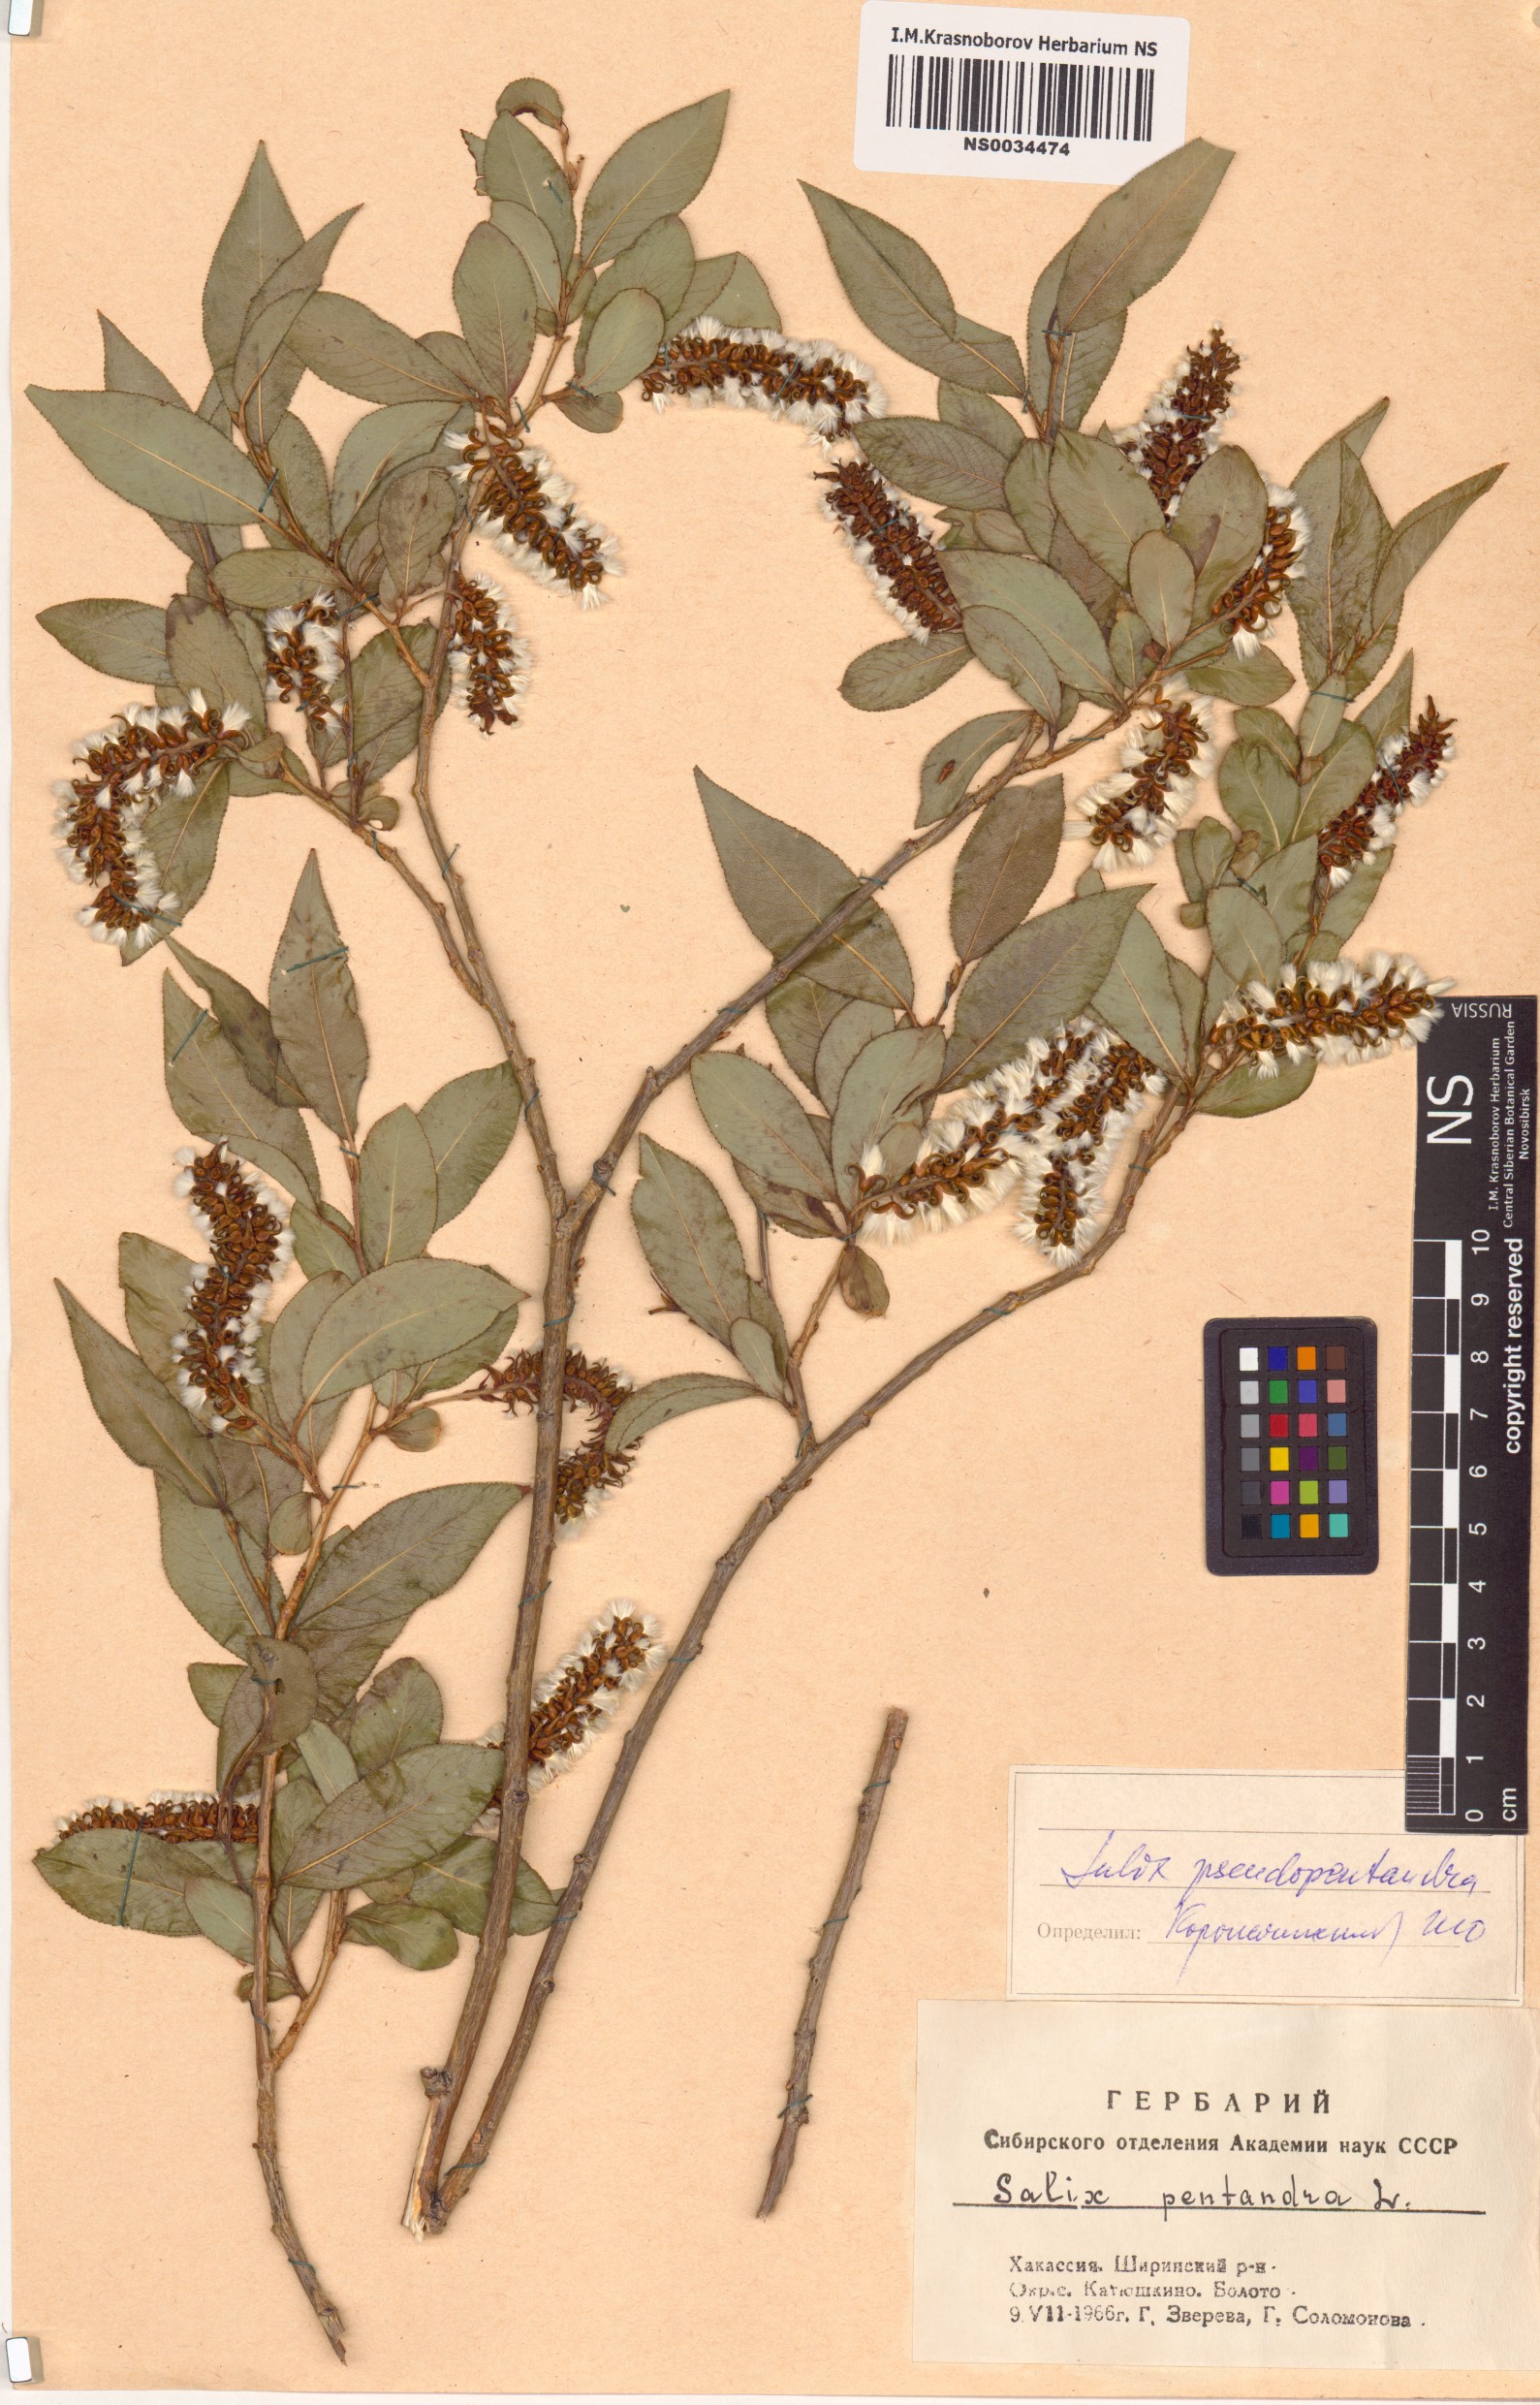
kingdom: Plantae
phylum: Tracheophyta
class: Magnoliopsida
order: Malpighiales
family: Salicaceae
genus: Salix
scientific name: Salix pseudopentandra
